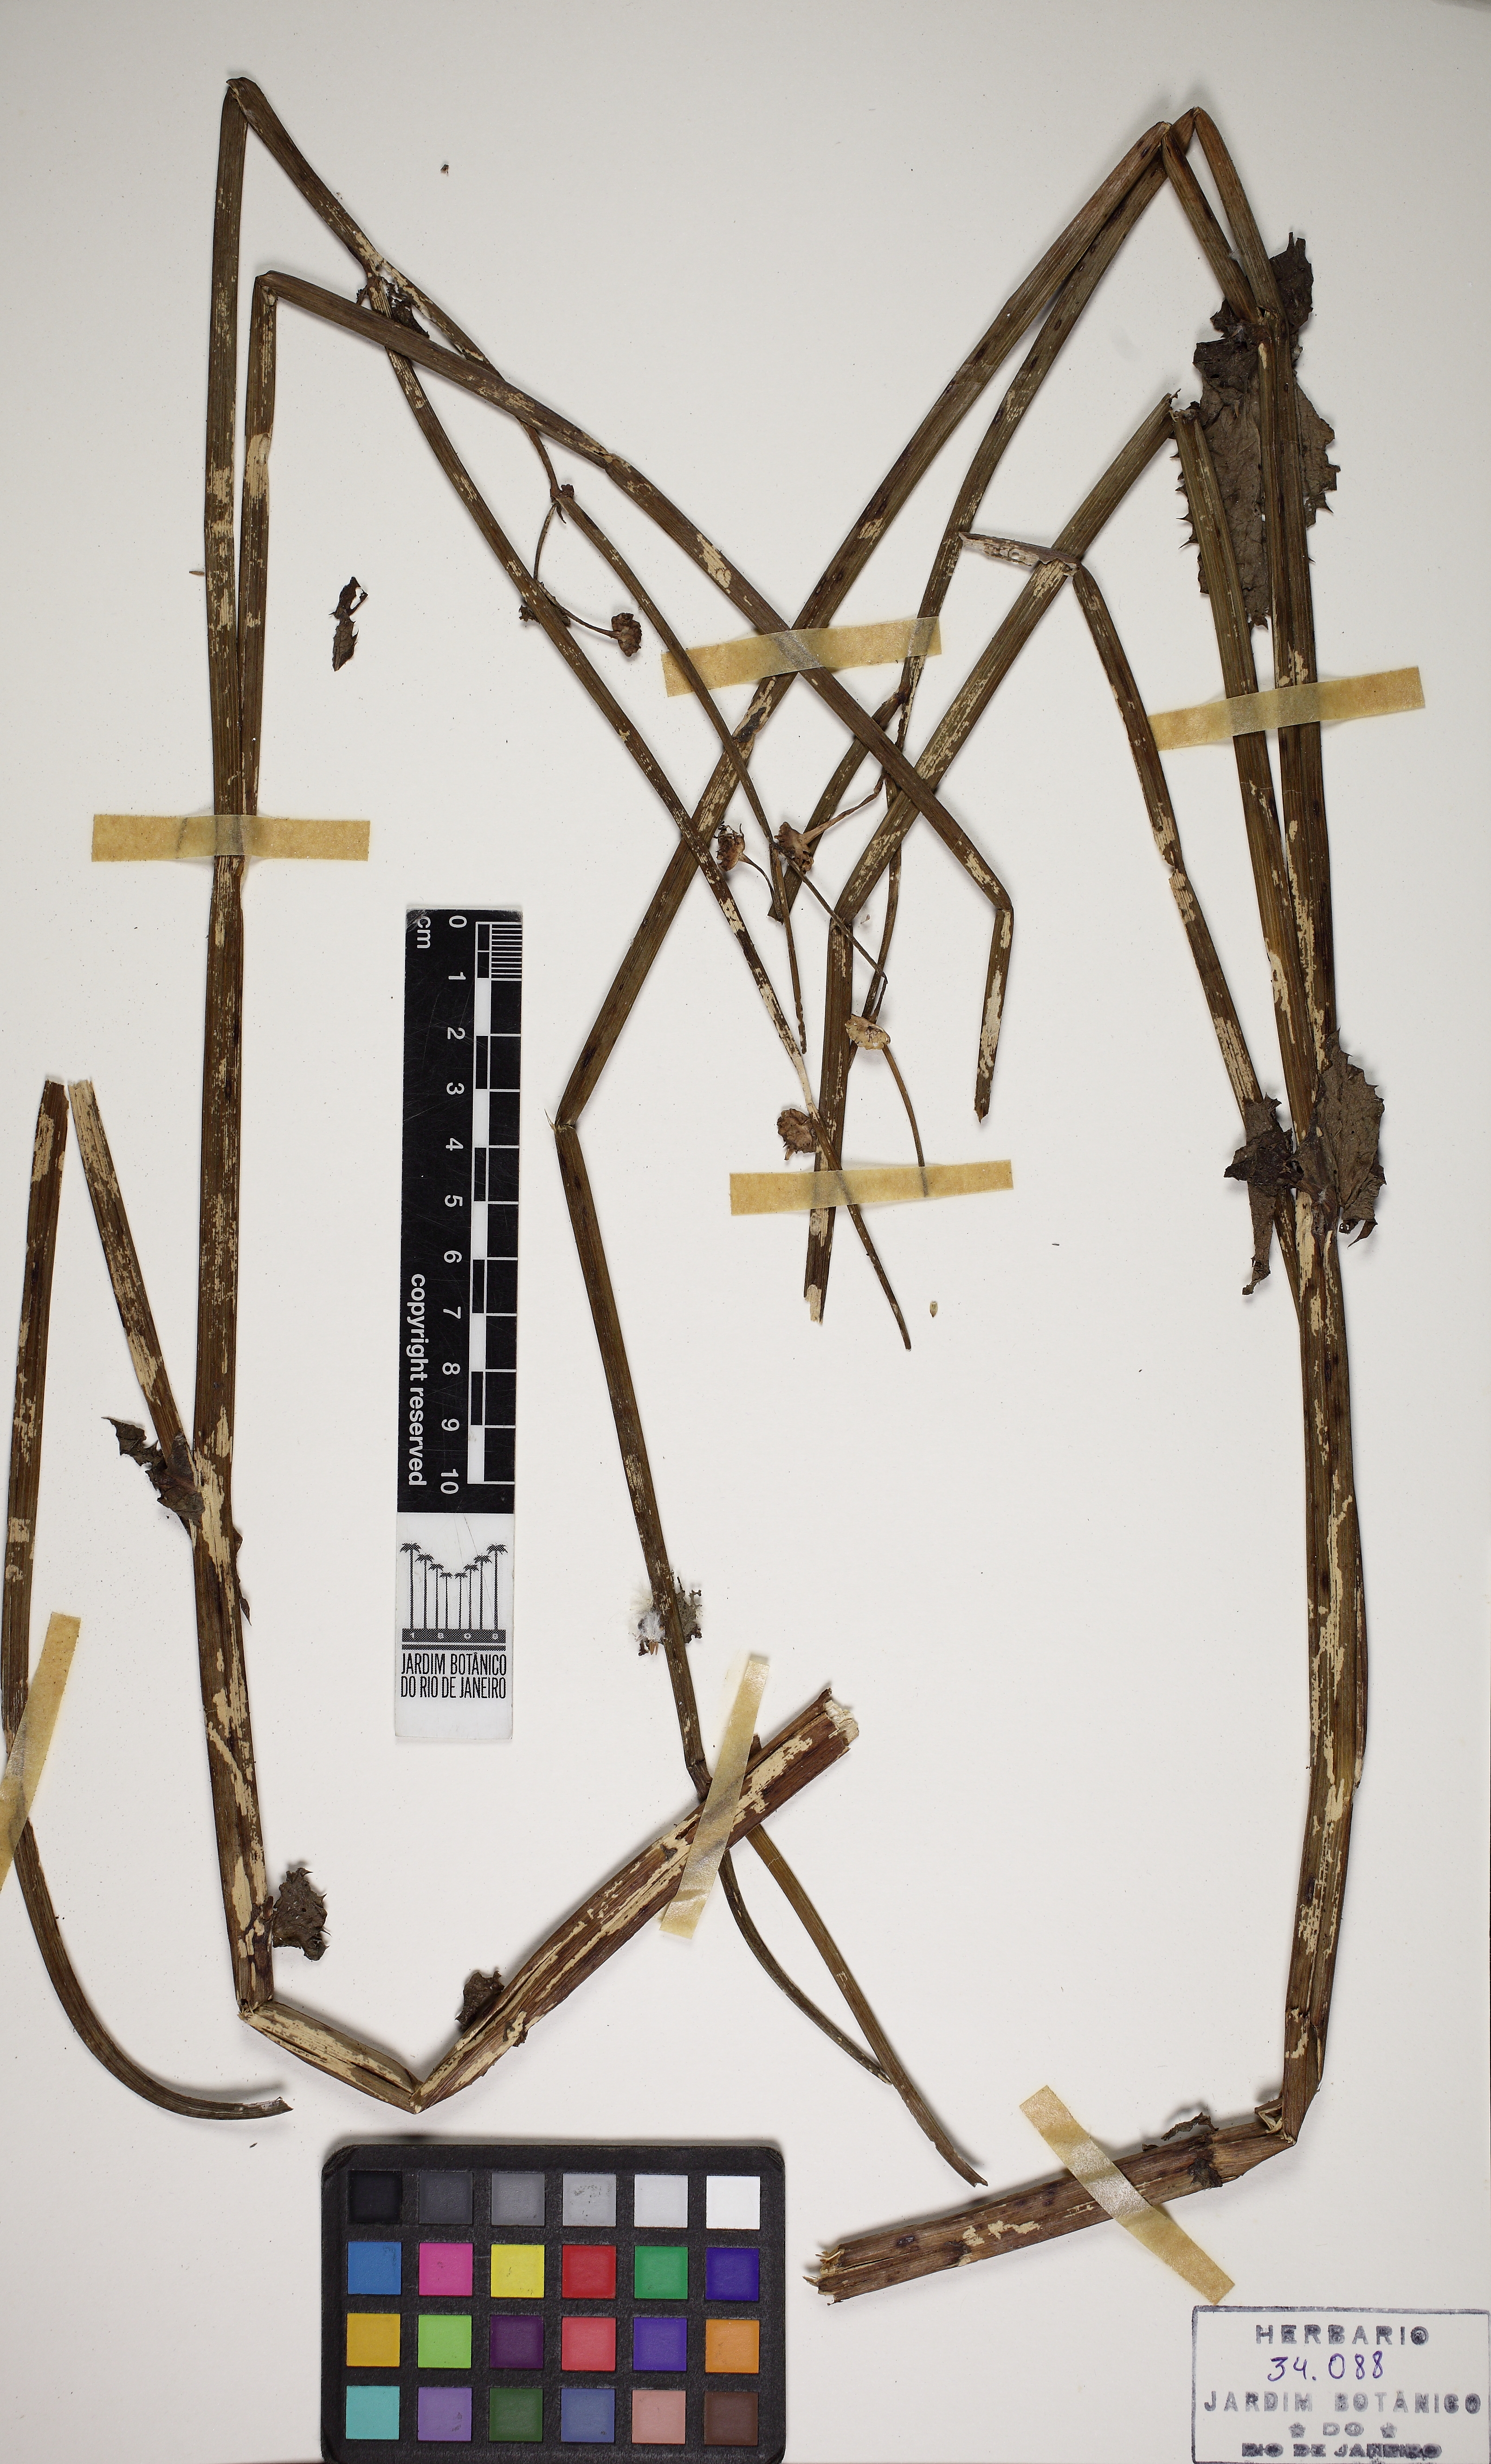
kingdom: Plantae
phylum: Tracheophyta
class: Magnoliopsida
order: Asterales
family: Asteraceae
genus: Sonchus
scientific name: Sonchus oleraceus
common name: Common sowthistle
